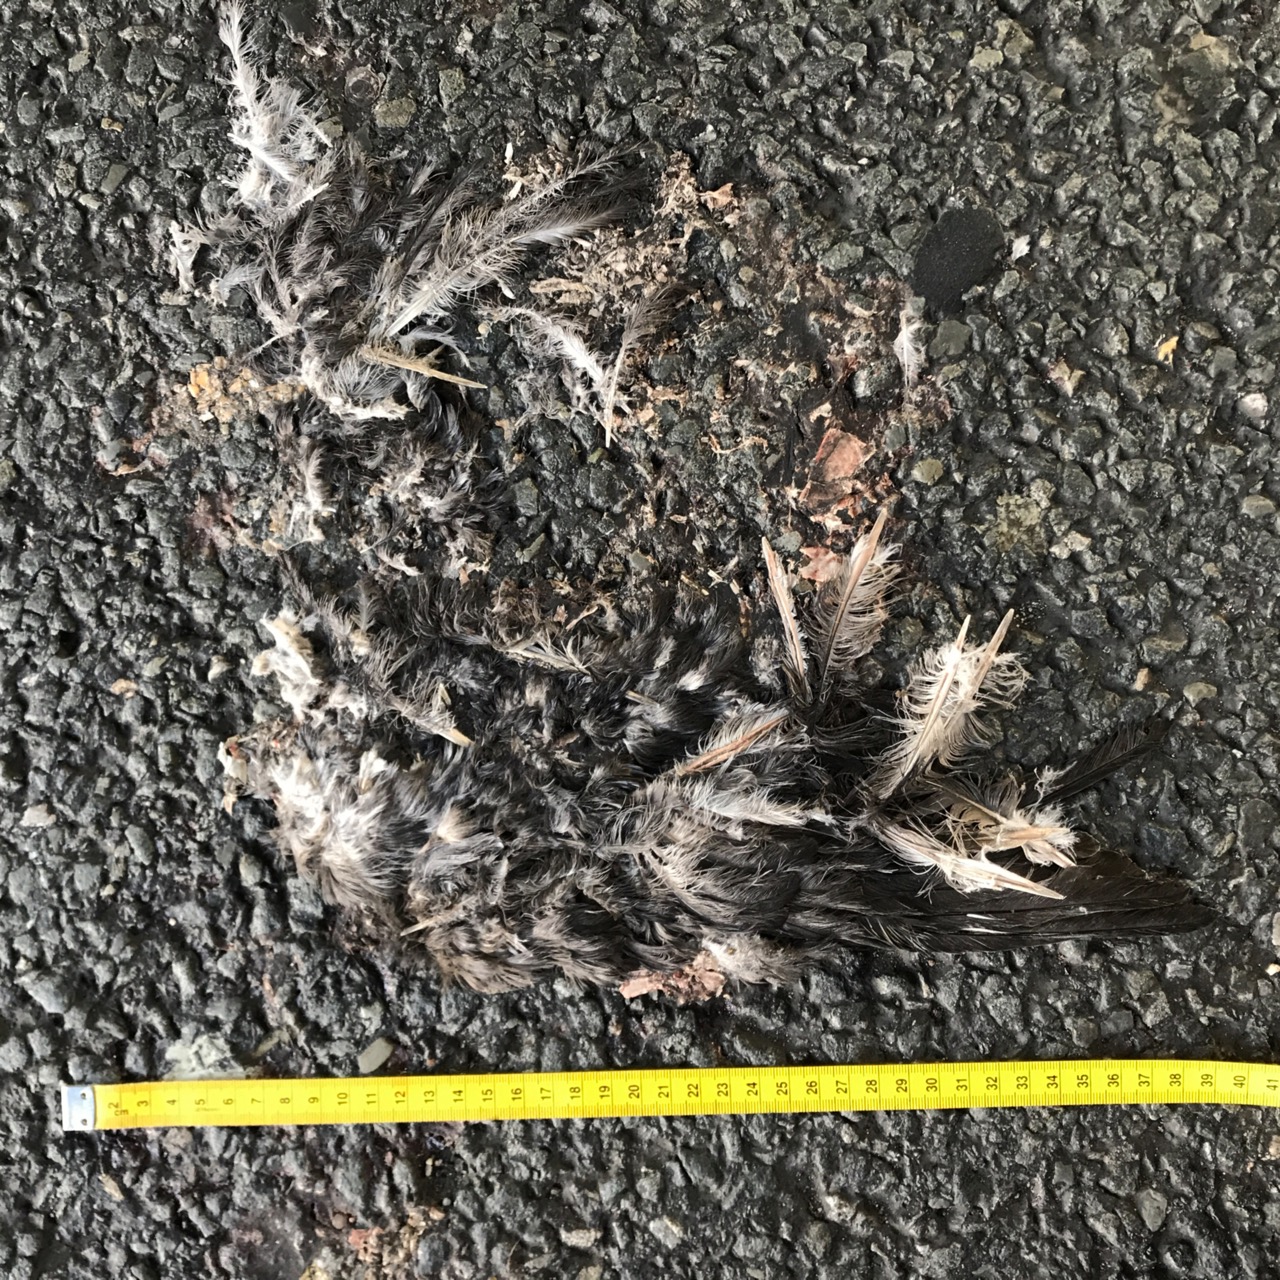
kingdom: Animalia
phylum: Chordata
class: Aves
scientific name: Aves
